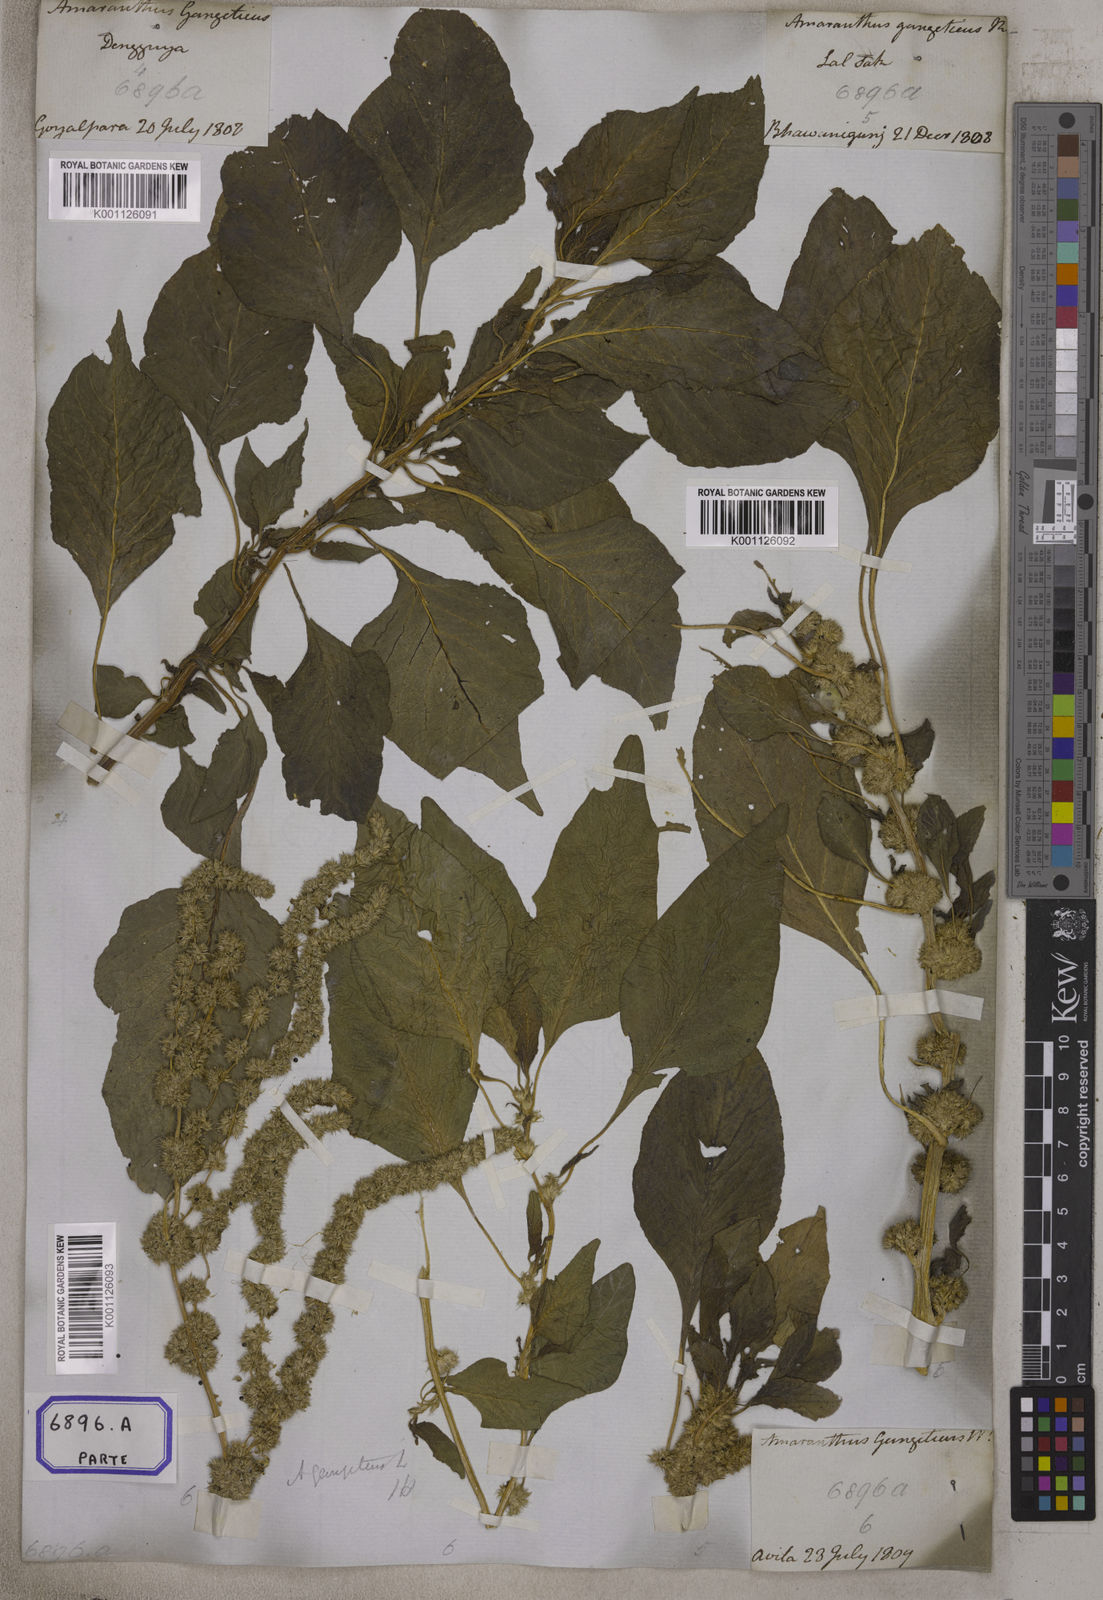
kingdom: Plantae
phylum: Tracheophyta
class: Magnoliopsida
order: Caryophyllales
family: Amaranthaceae
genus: Amaranthus
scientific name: Amaranthus blitum
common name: Purple amaranth
